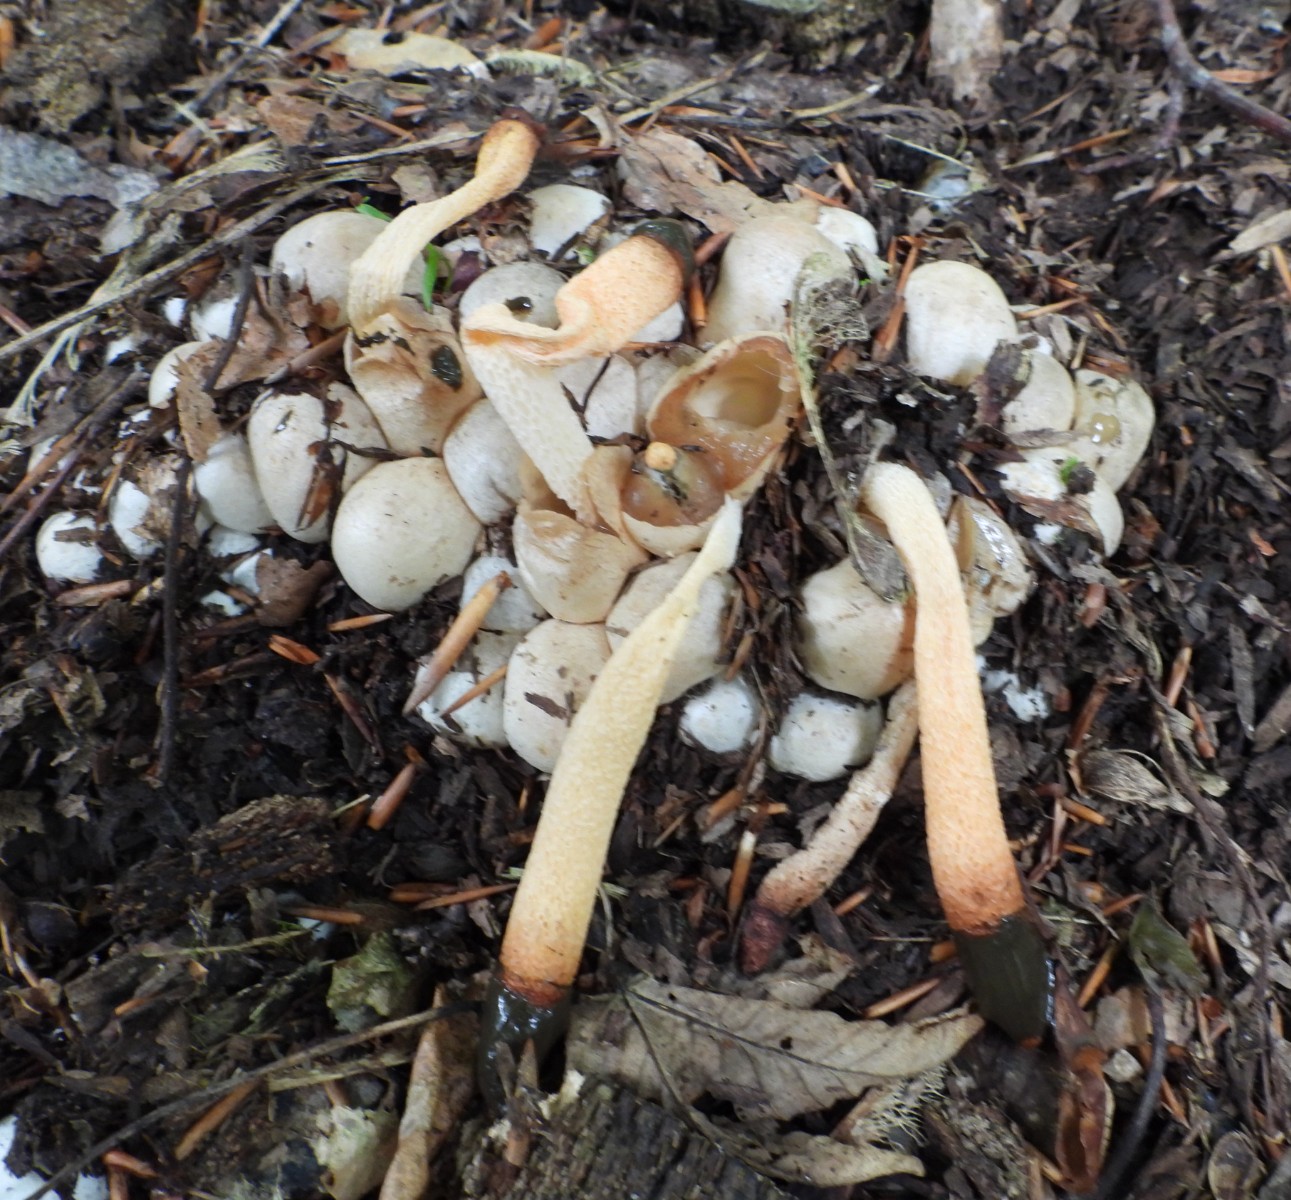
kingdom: Fungi
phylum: Basidiomycota
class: Agaricomycetes
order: Phallales
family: Phallaceae
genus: Mutinus
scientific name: Mutinus caninus
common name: hunde-stinksvamp
